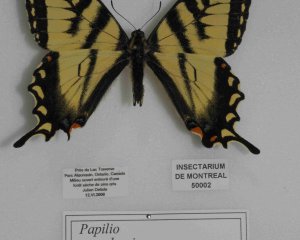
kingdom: Animalia
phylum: Arthropoda
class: Insecta
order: Lepidoptera
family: Papilionidae
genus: Pterourus
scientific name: Pterourus canadensis
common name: Canadian Tiger Swallowtail
